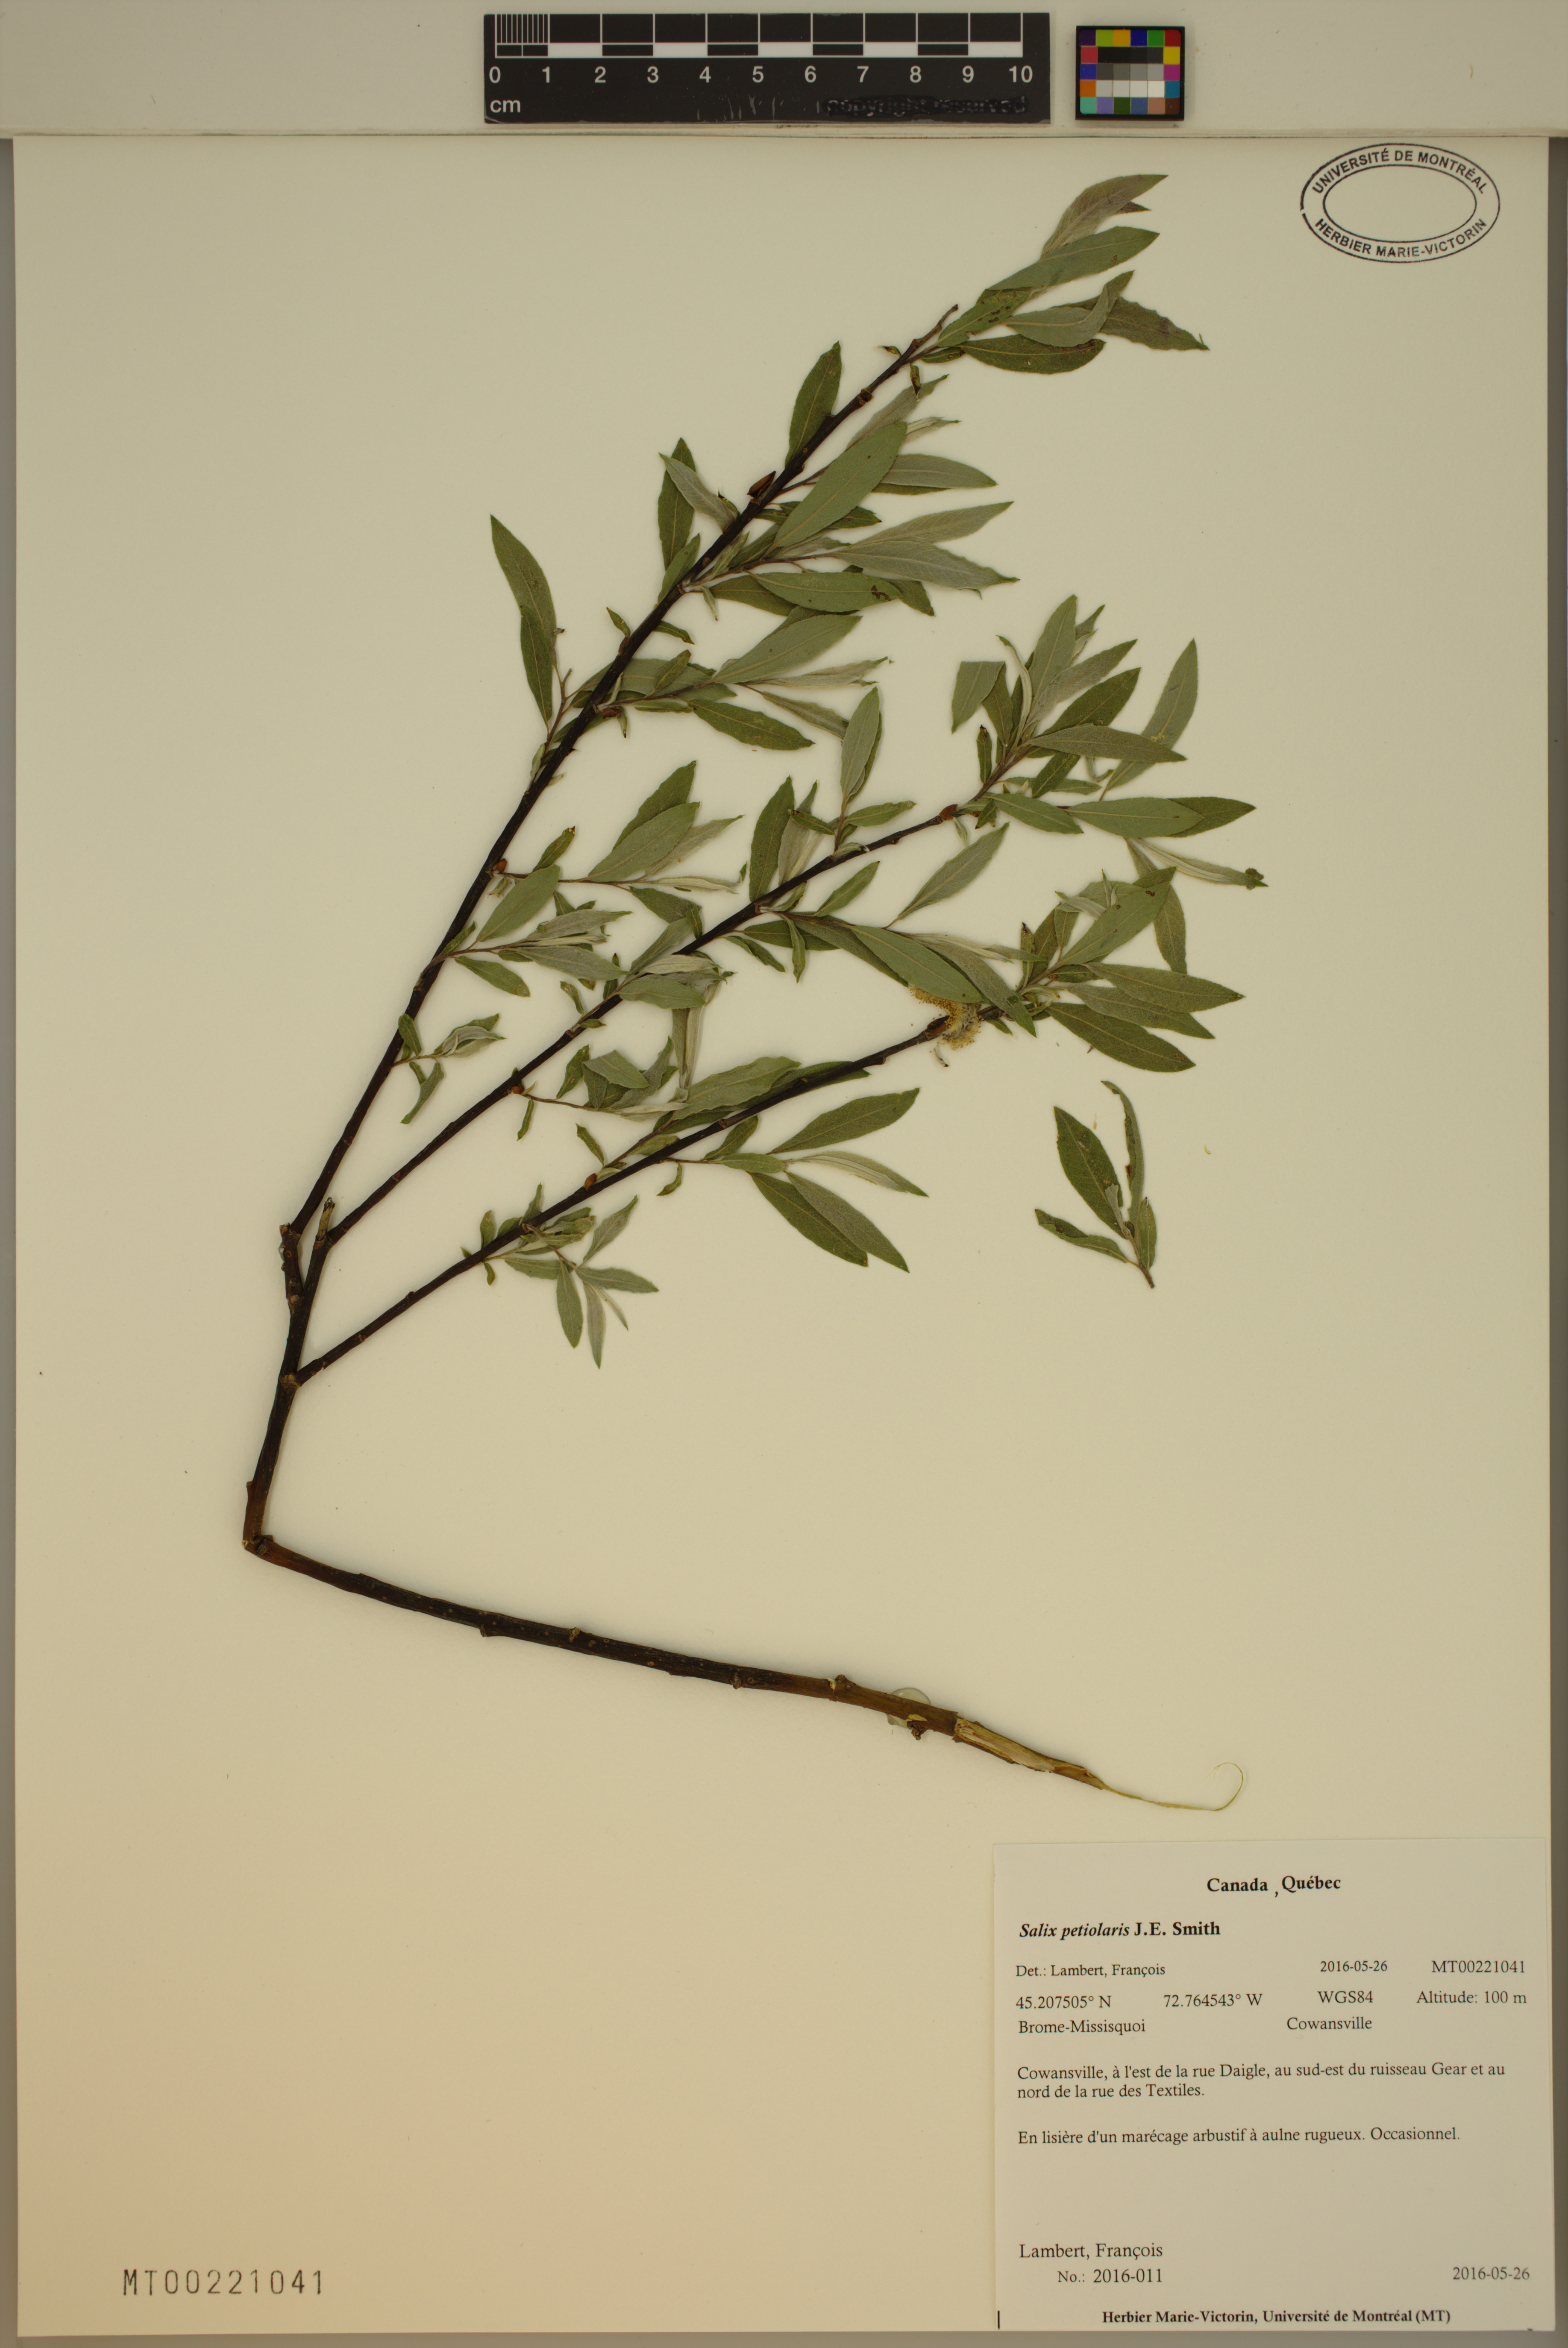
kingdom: Plantae
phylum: Tracheophyta
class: Magnoliopsida
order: Malpighiales
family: Salicaceae
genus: Salix
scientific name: Salix petiolaris
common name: Slender willow
